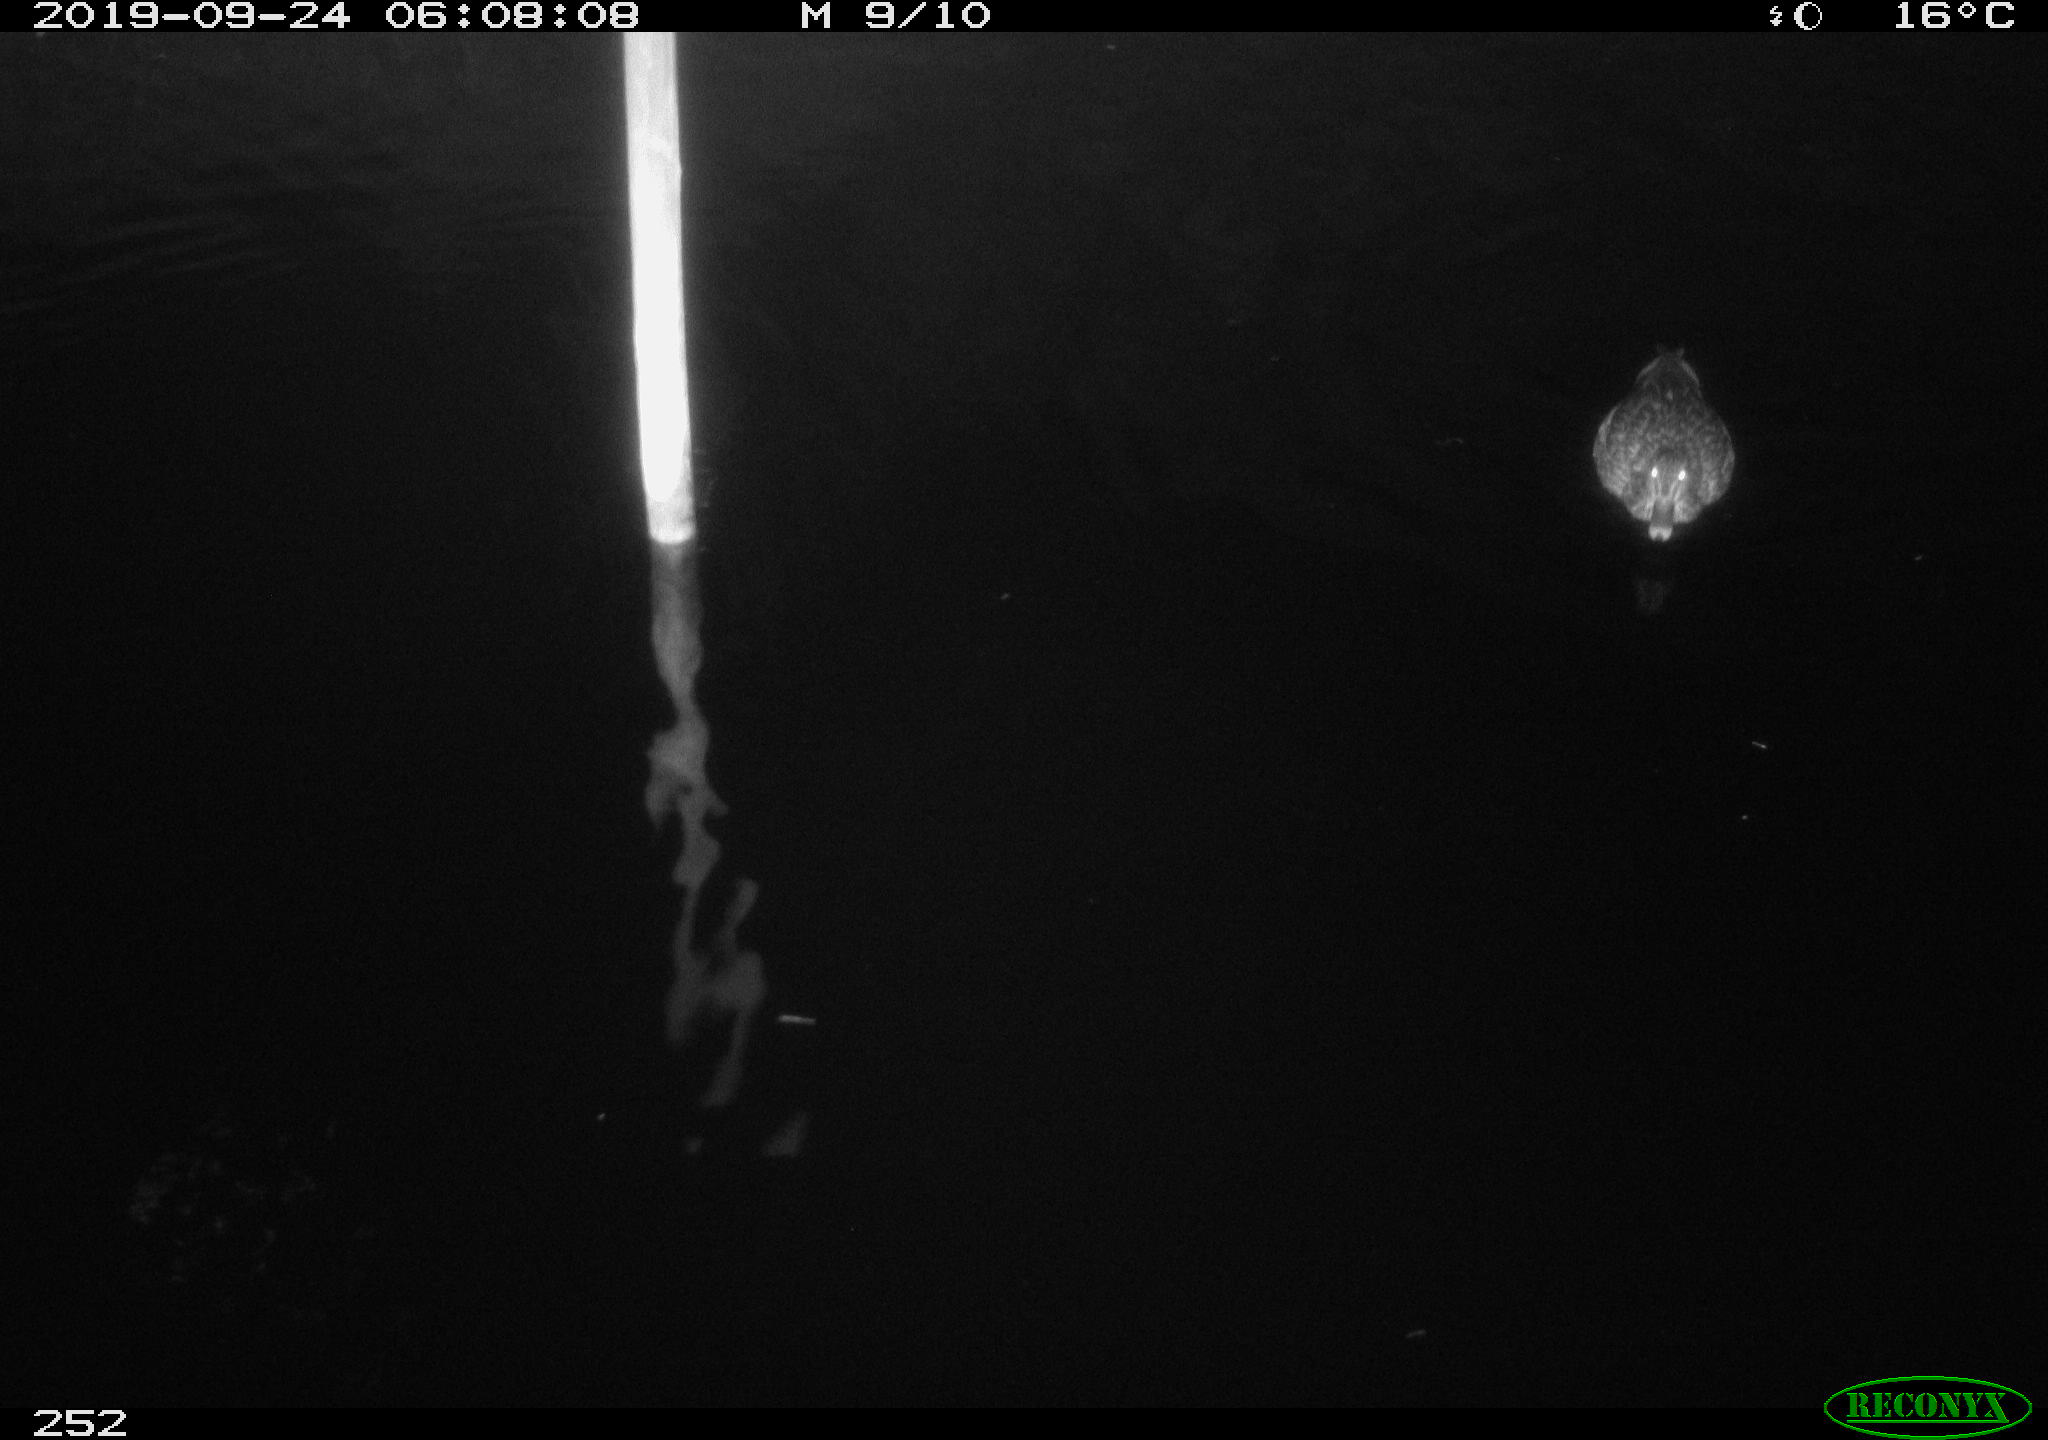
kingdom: Animalia
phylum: Chordata
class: Aves
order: Anseriformes
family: Anatidae
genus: Anas
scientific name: Anas platyrhynchos
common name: Mallard
